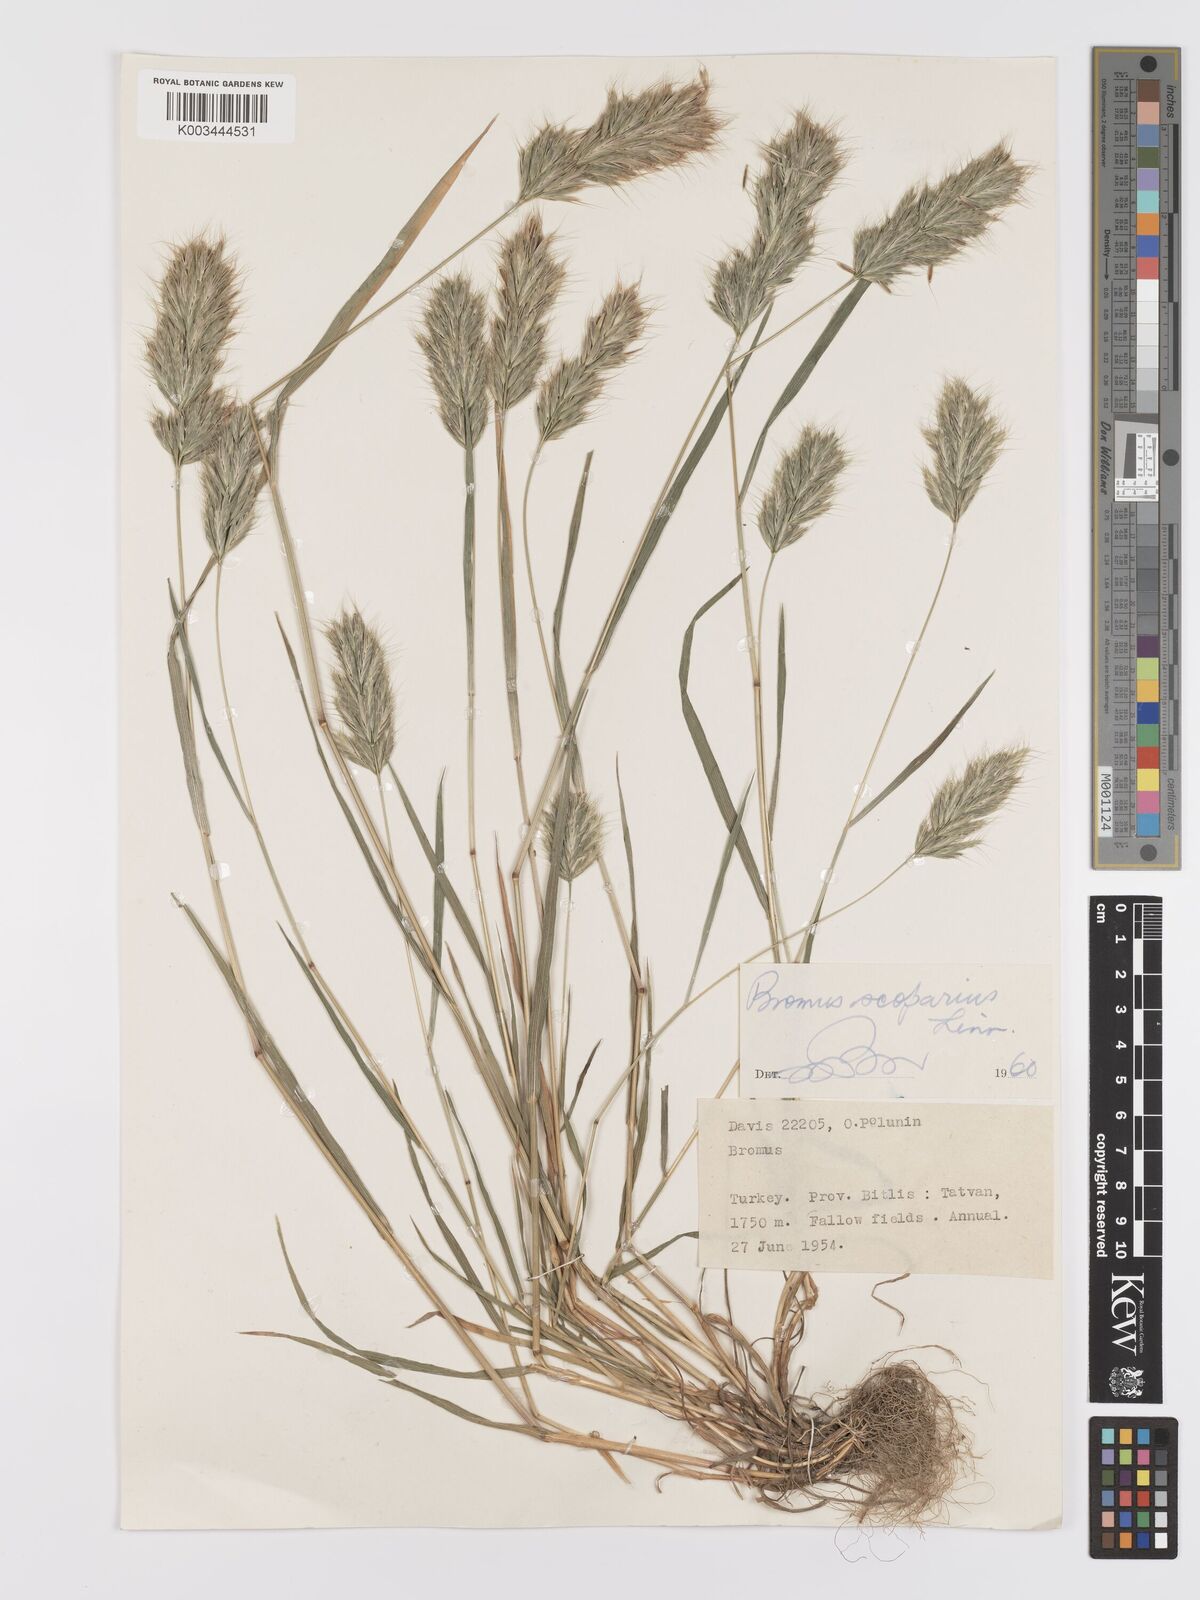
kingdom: Plantae
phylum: Tracheophyta
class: Liliopsida
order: Poales
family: Poaceae
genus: Bromus
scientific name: Bromus scoparius
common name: Broom brome
